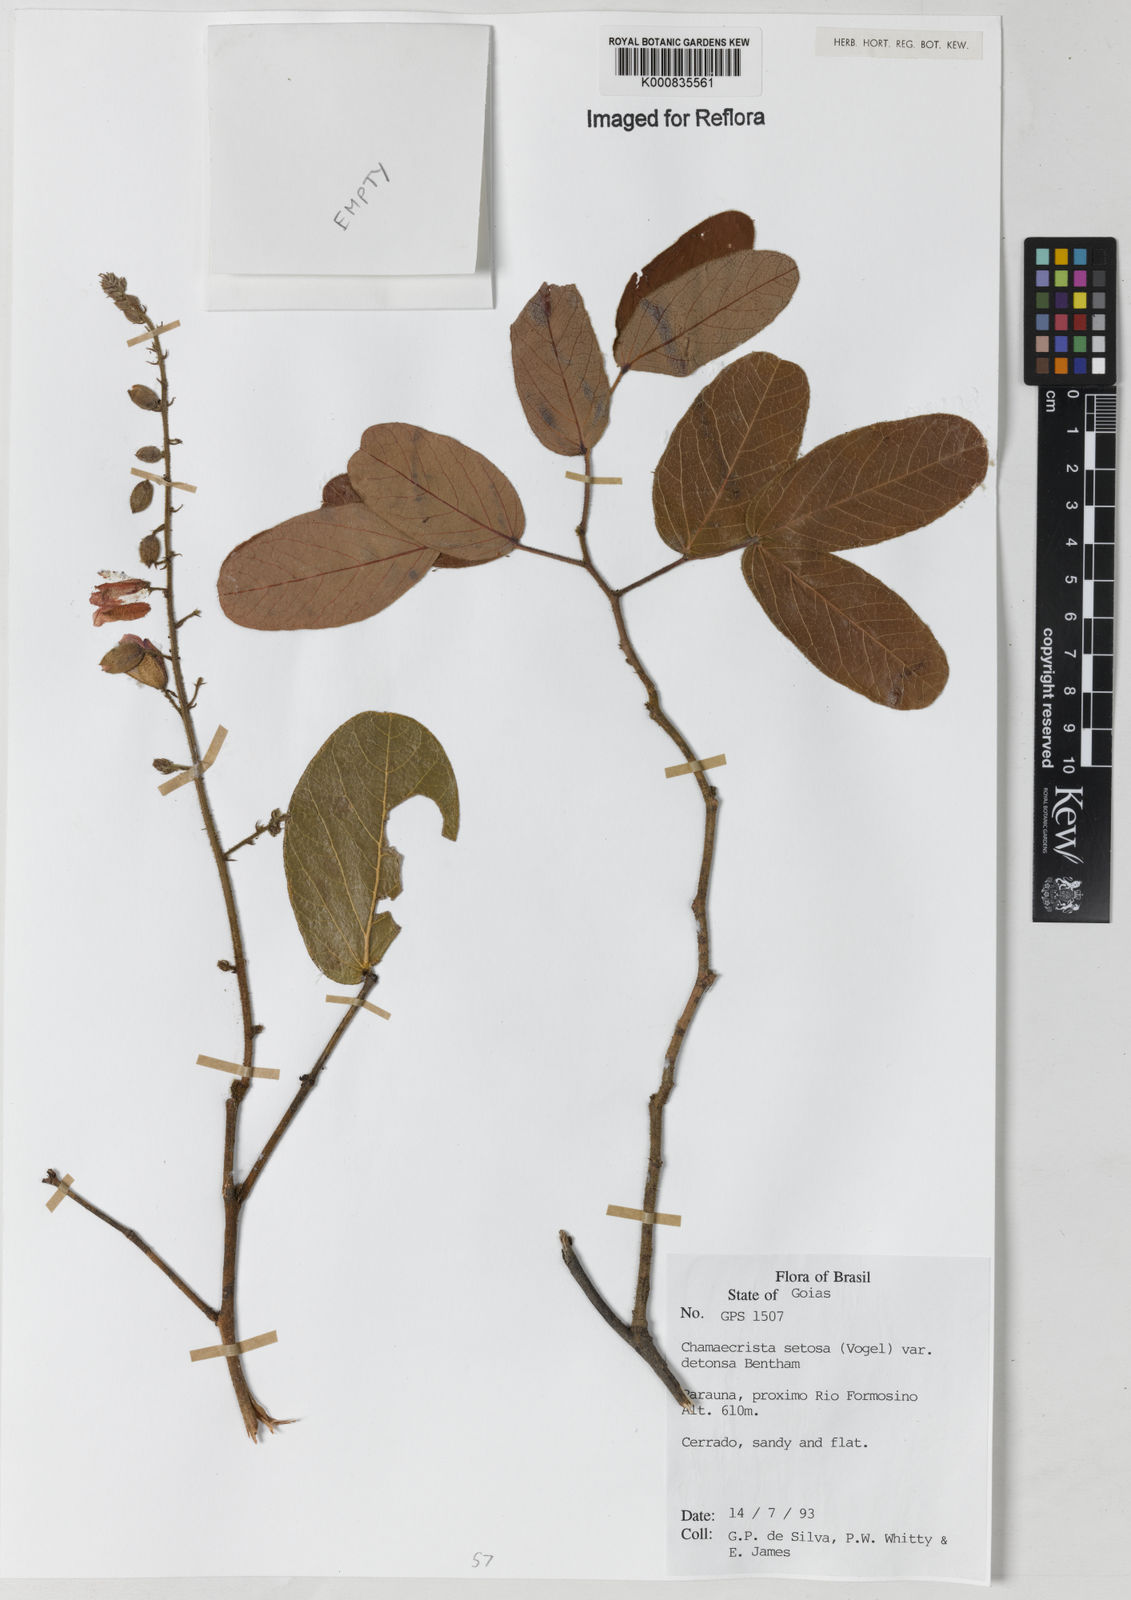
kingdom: Plantae
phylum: Tracheophyta
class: Magnoliopsida
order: Fabales
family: Fabaceae
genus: Chamaecrista
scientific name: Chamaecrista setosa
